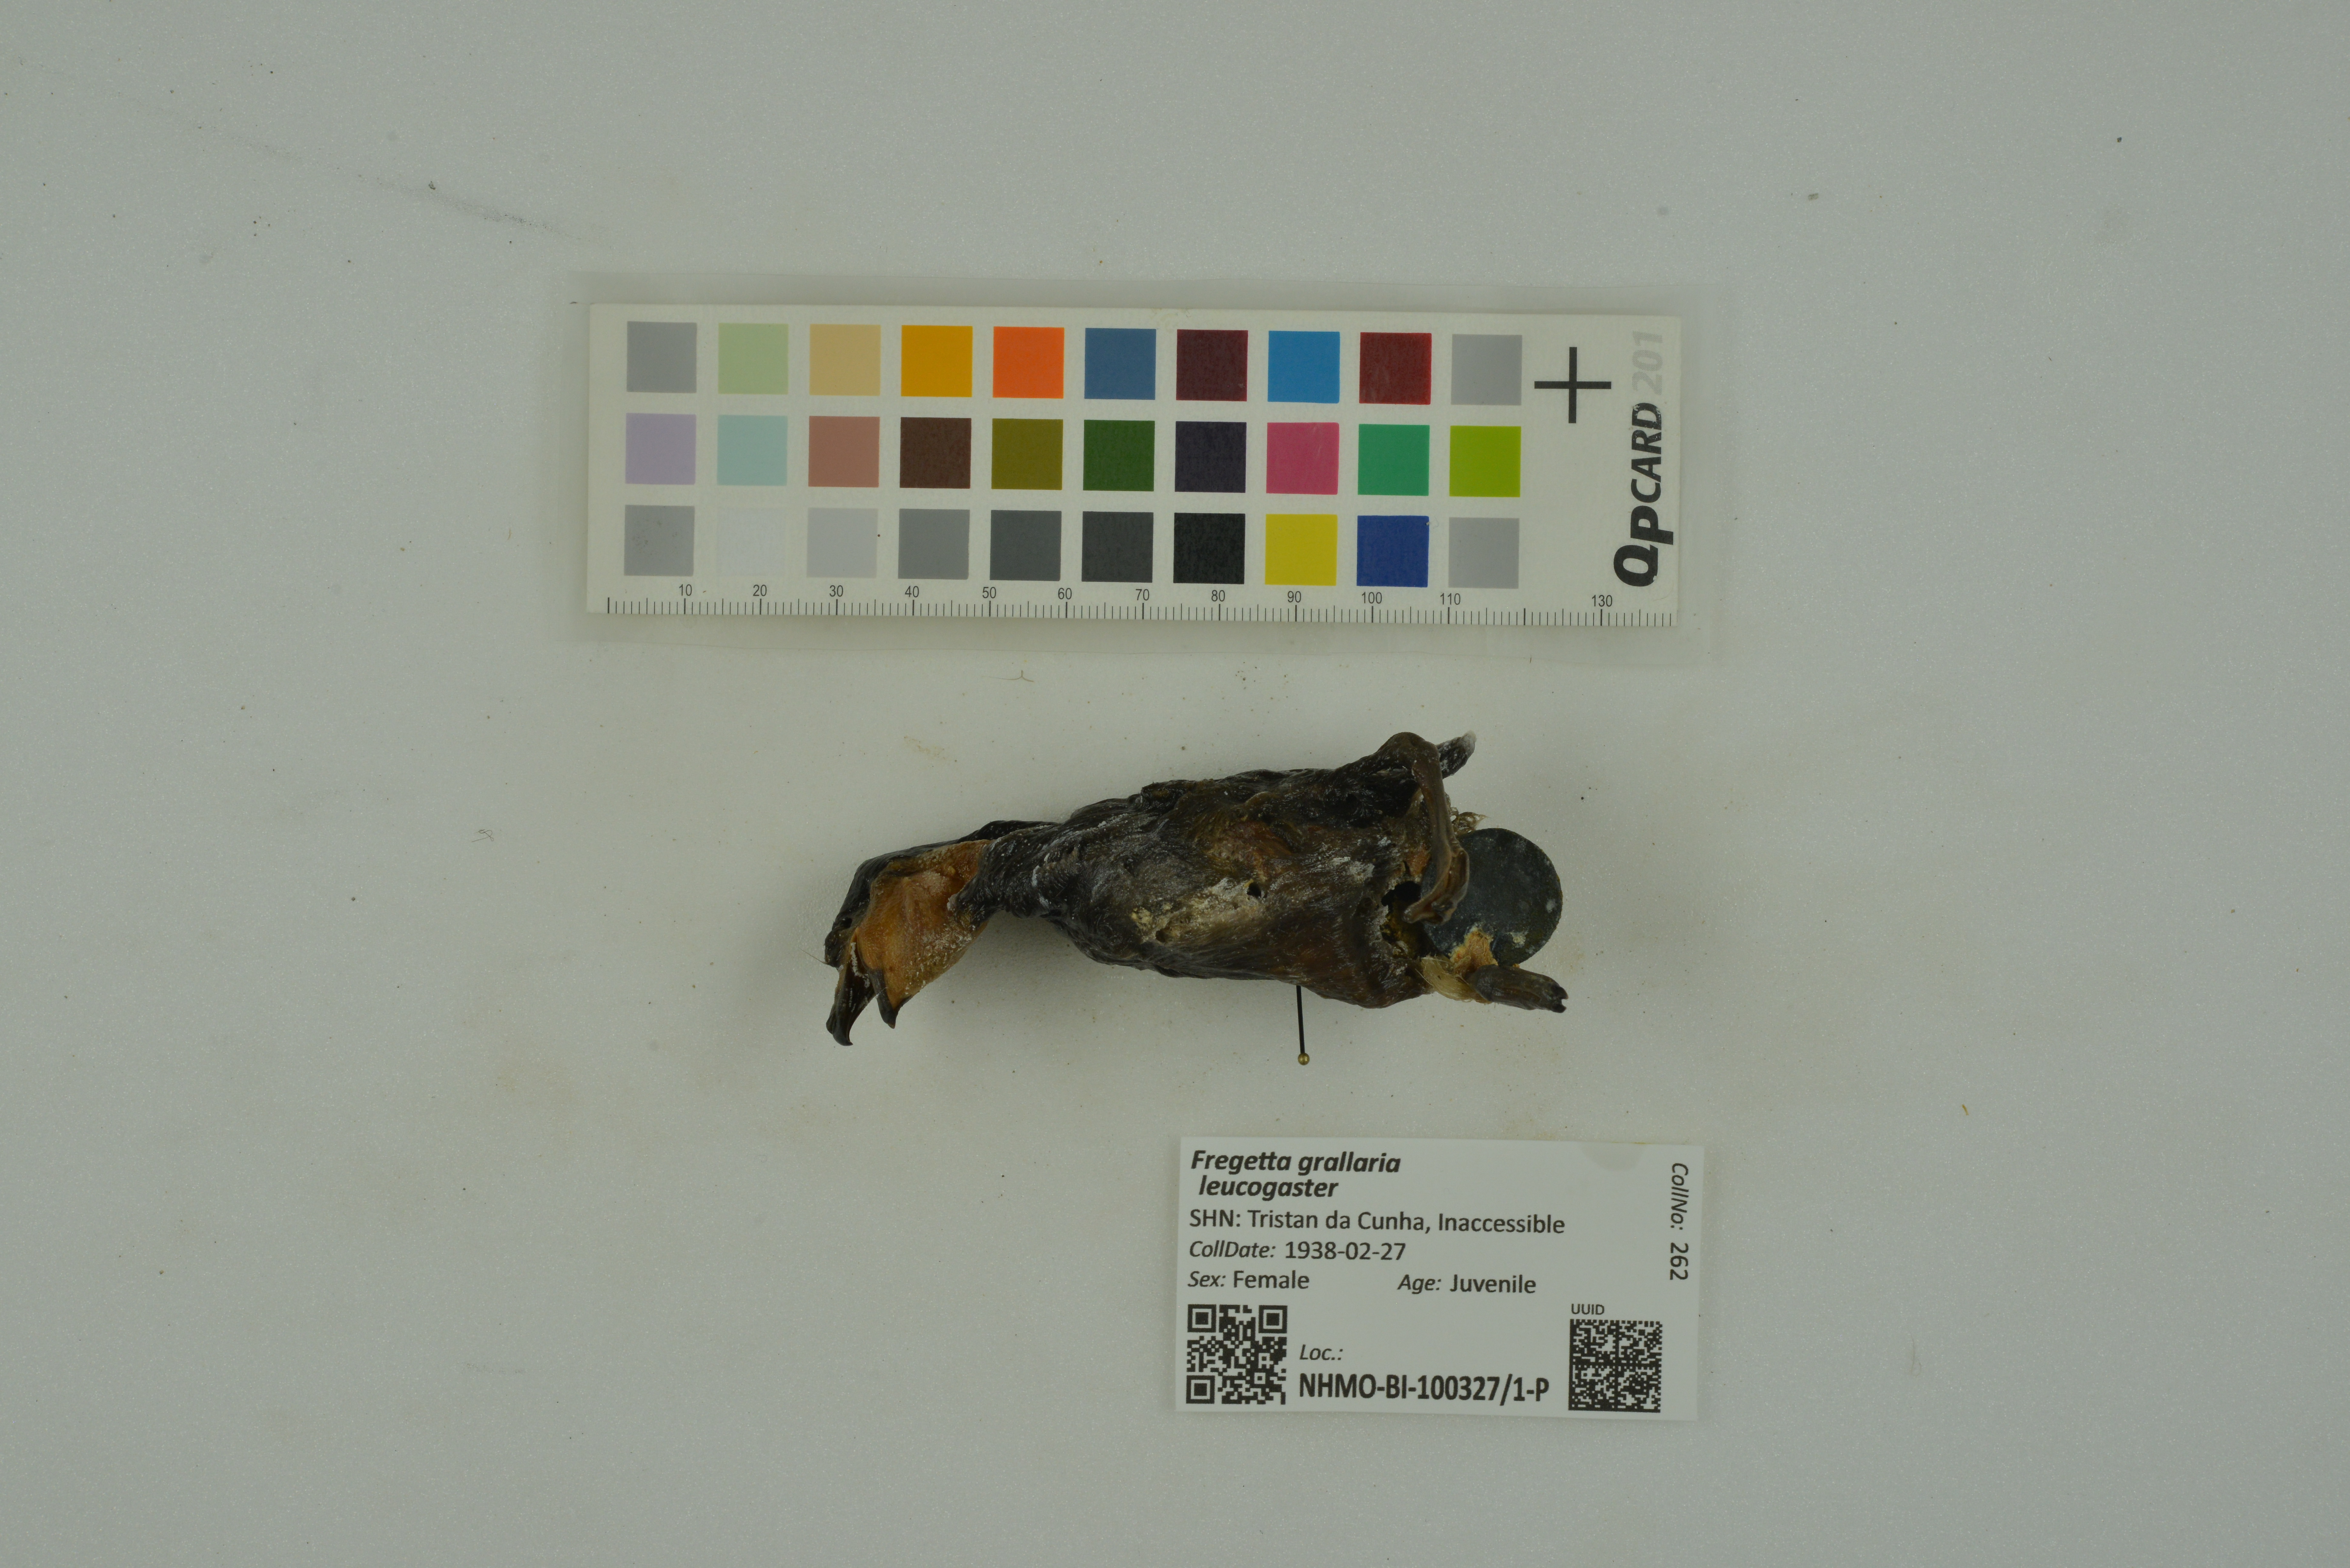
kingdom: Animalia
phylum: Chordata
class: Aves
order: Procellariiformes
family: Hydrobatidae
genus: Fregetta
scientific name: Fregetta grallaria
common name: White-bellied storm-petrel
